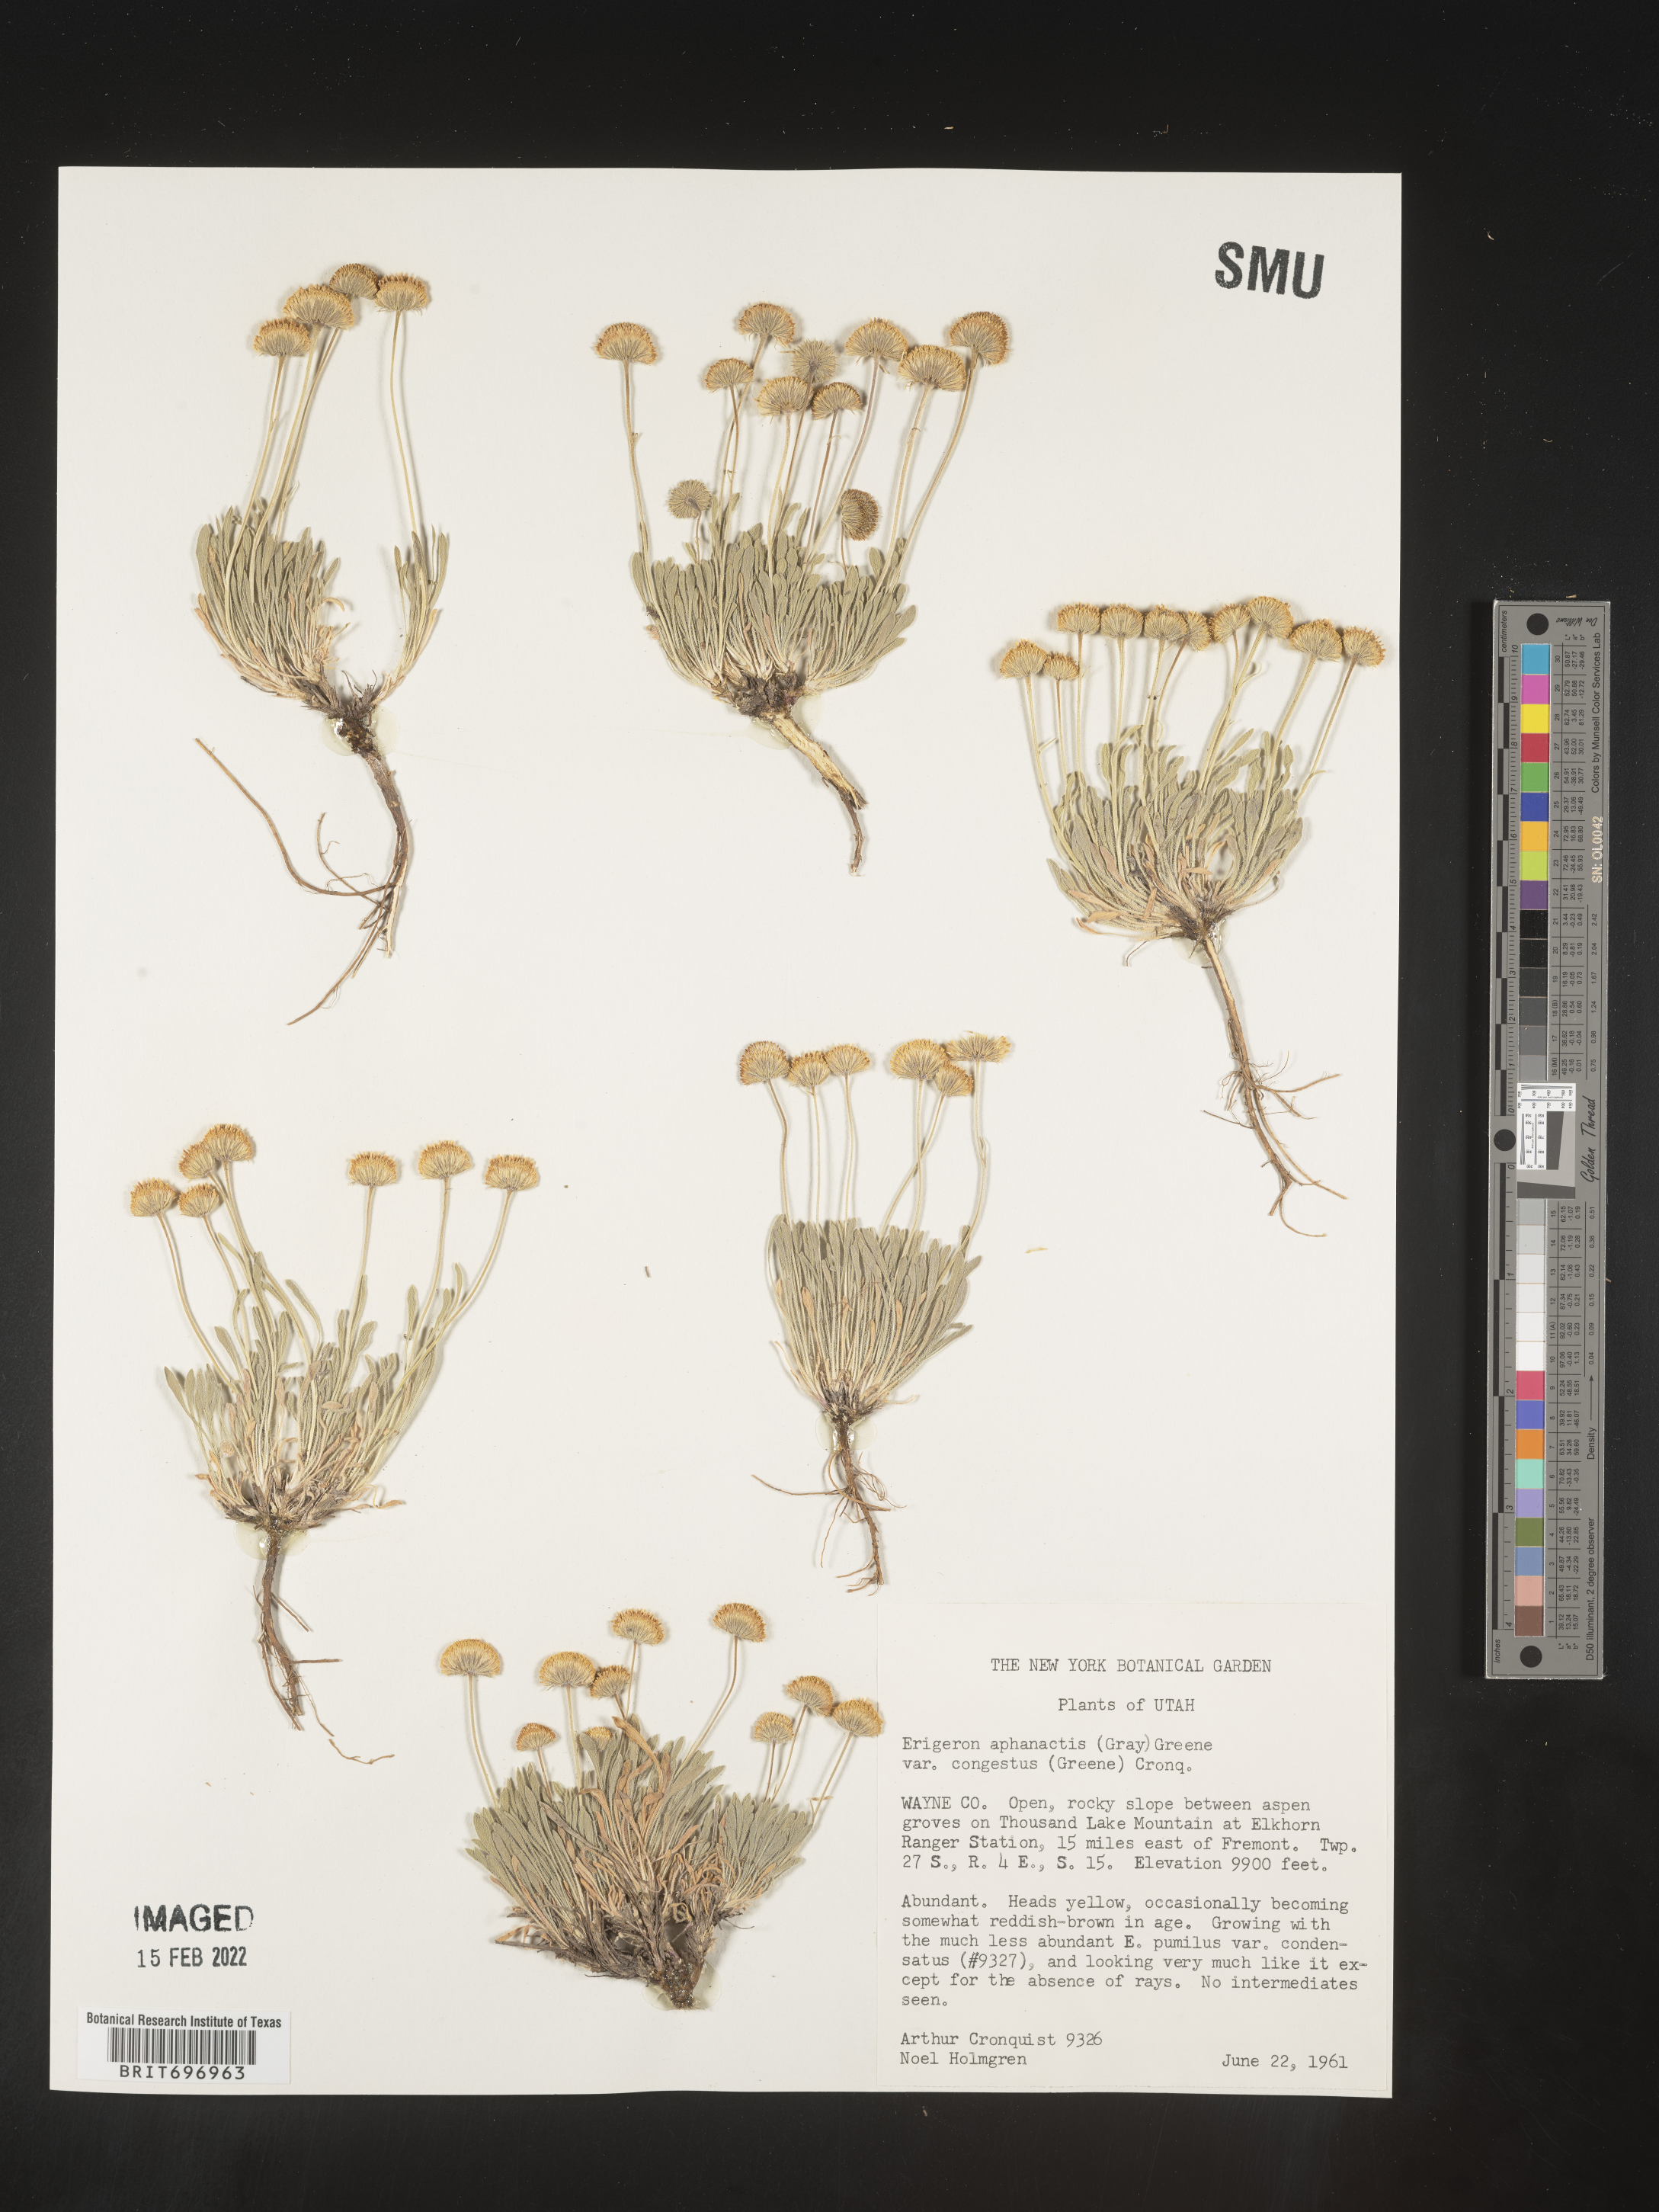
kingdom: Plantae
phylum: Tracheophyta
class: Magnoliopsida
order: Asterales
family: Asteraceae
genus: Erigeron
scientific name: Erigeron aphanactis
